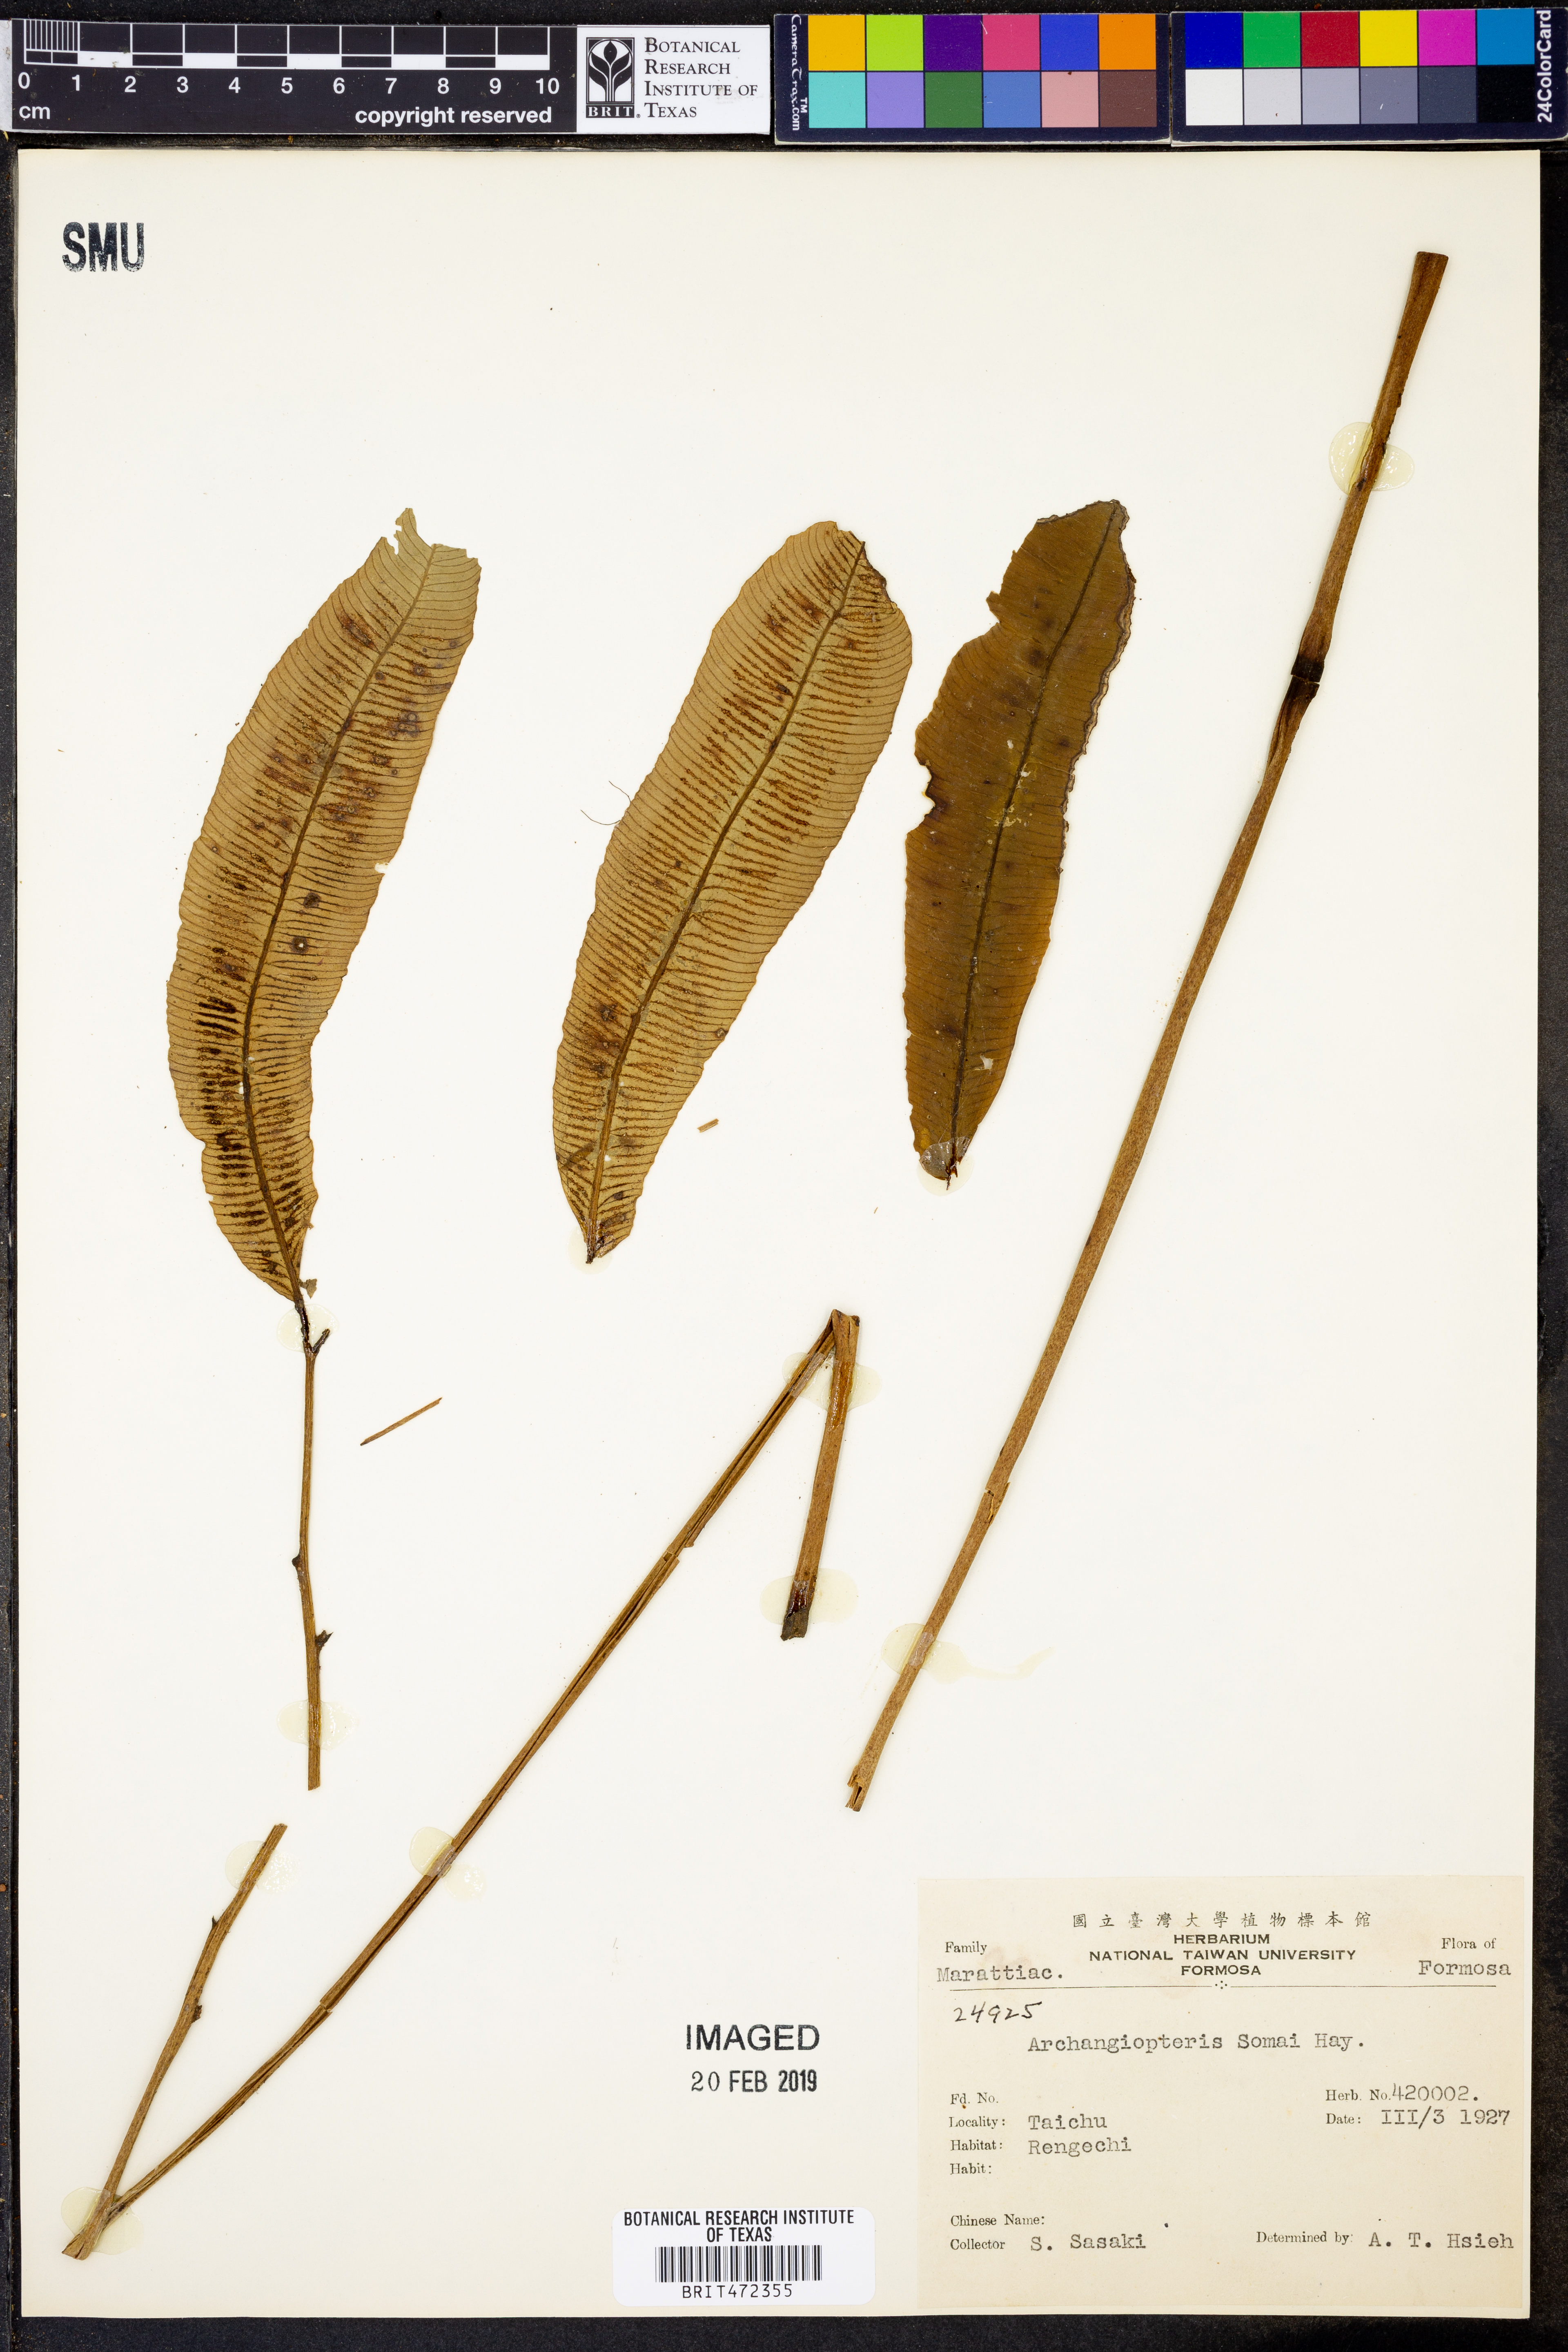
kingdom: Plantae
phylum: Tracheophyta
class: Polypodiopsida
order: Marattiales
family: Marattiaceae
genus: Angiopteris
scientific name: Angiopteris
